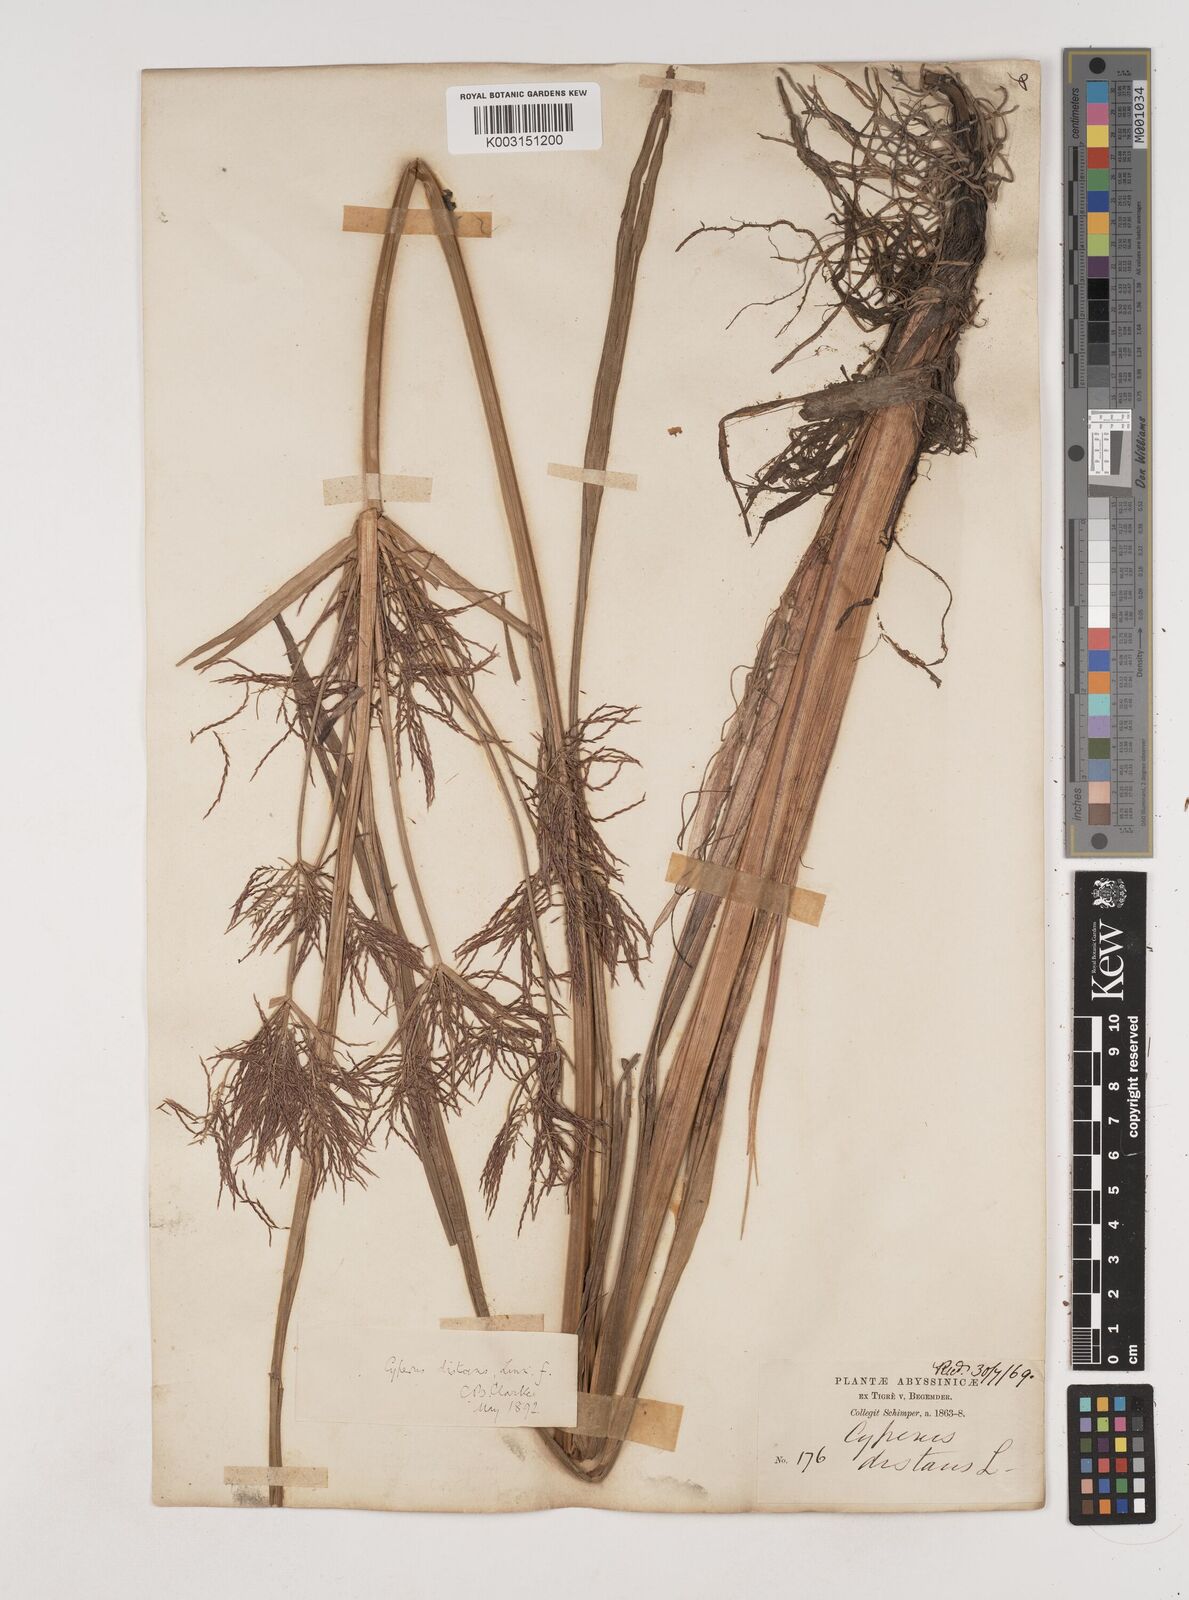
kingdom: Plantae
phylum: Tracheophyta
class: Liliopsida
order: Poales
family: Cyperaceae
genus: Cyperus
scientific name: Cyperus distans
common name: Slender cyperus
